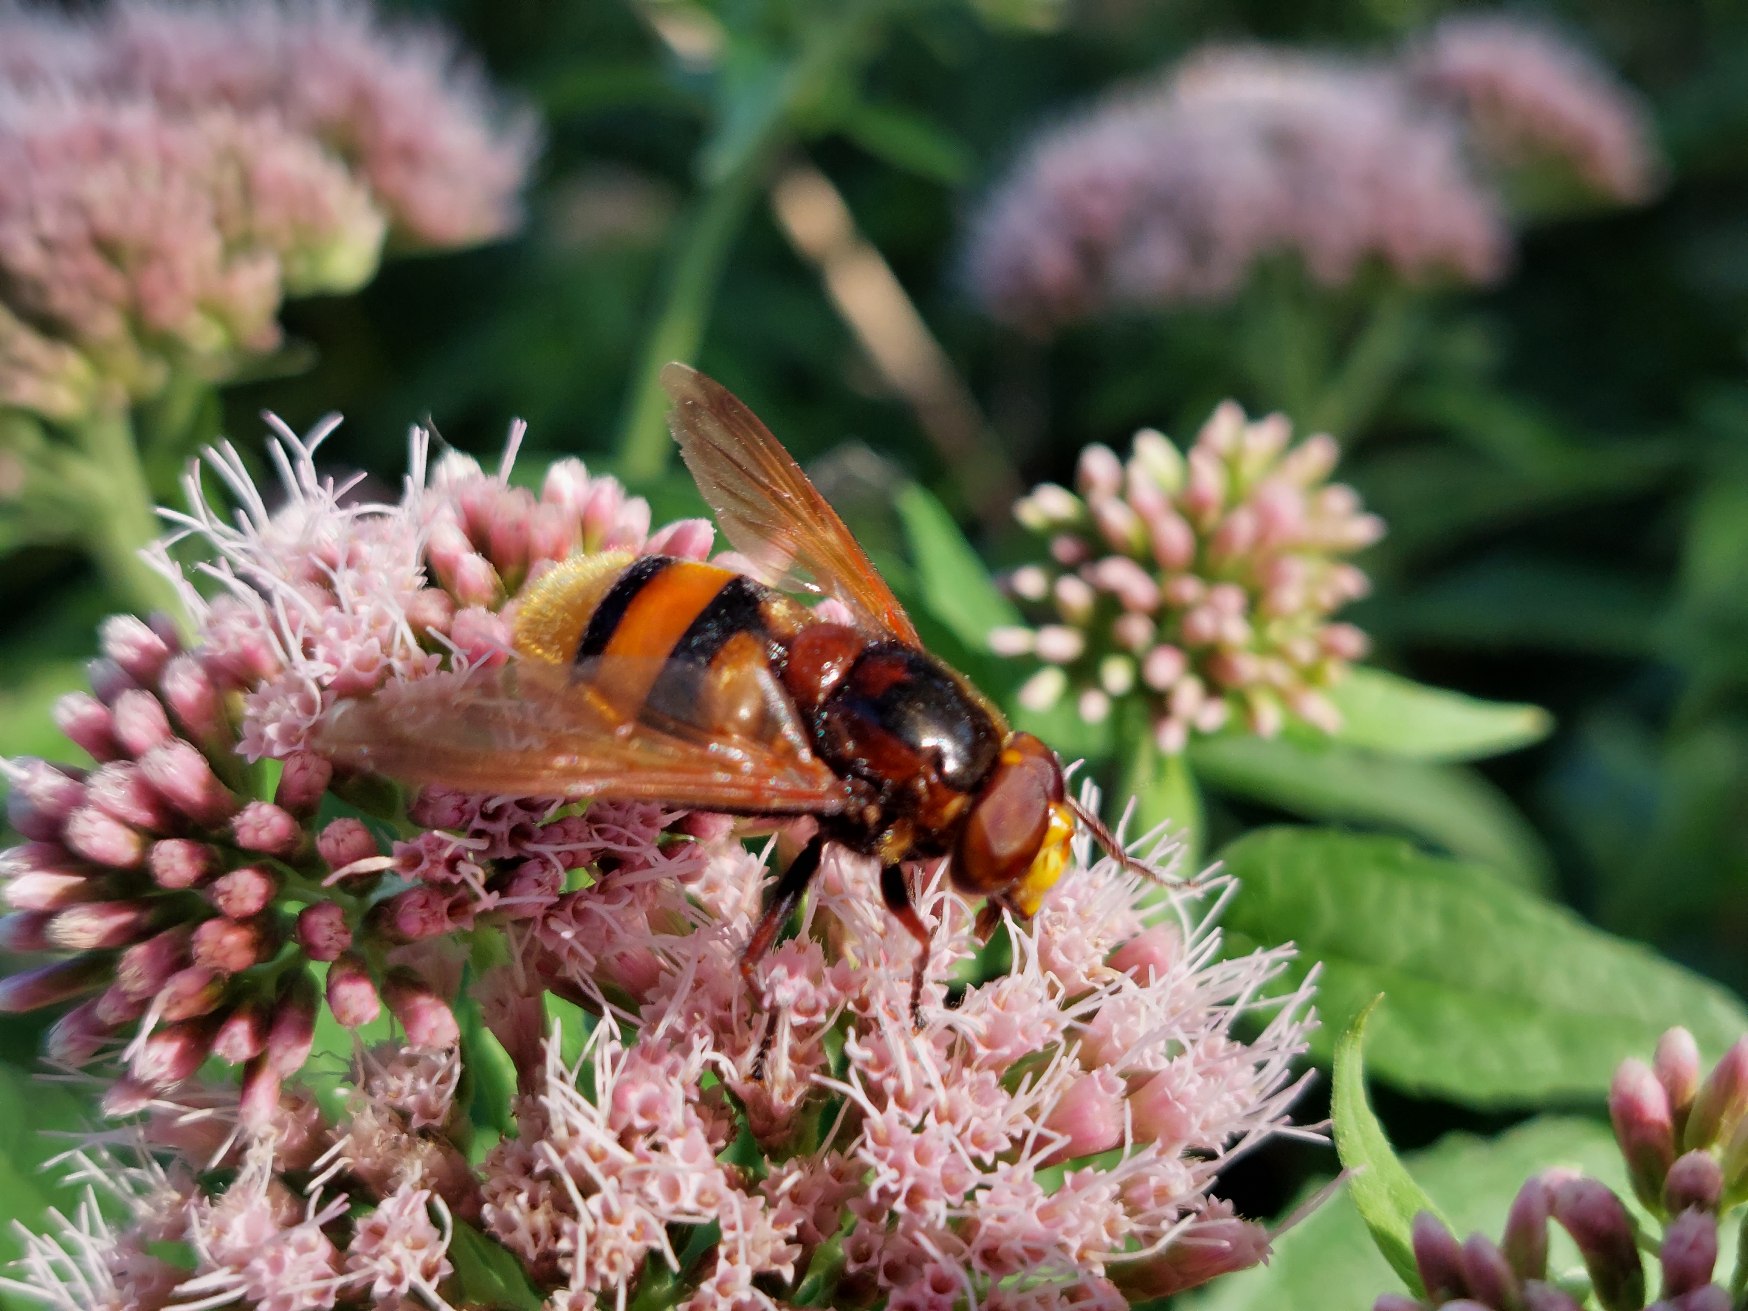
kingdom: Animalia
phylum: Arthropoda
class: Insecta
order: Diptera
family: Syrphidae
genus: Volucella
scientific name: Volucella zonaria
